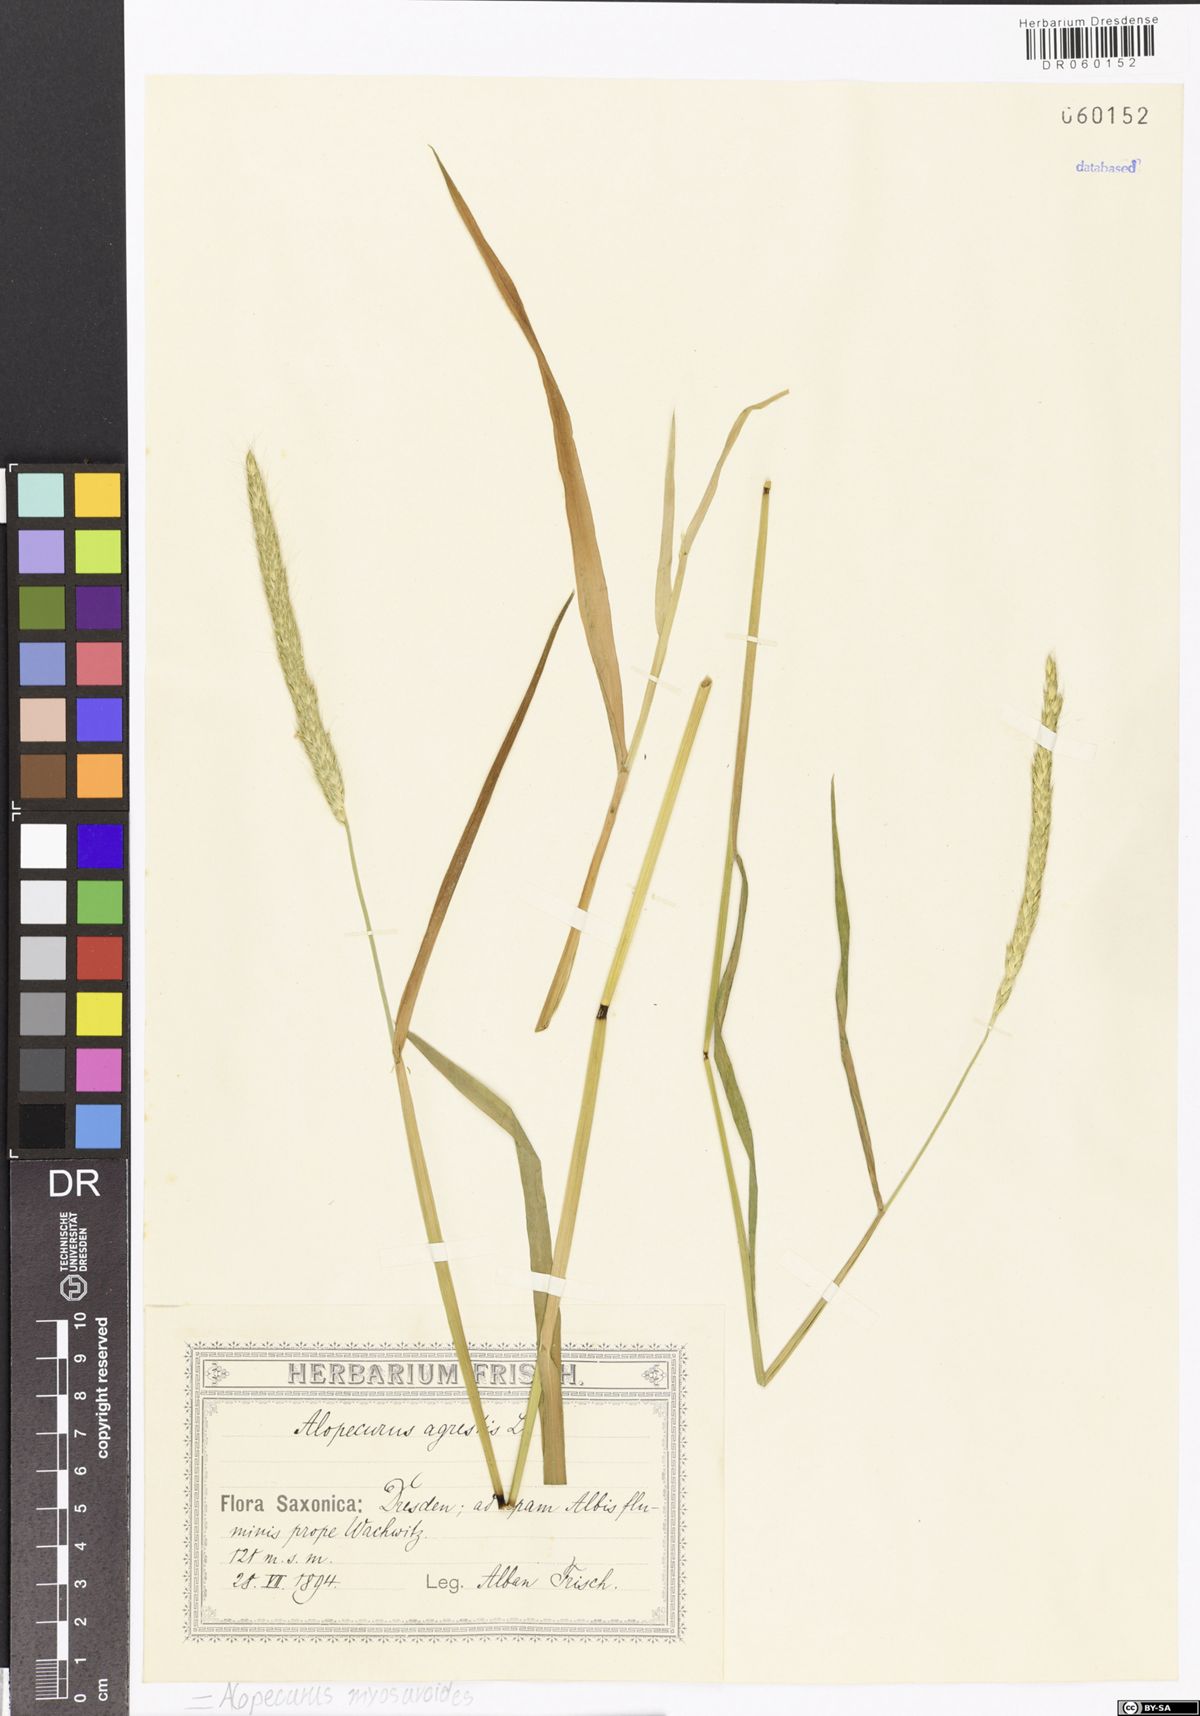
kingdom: Plantae
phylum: Tracheophyta
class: Liliopsida
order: Poales
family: Poaceae
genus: Alopecurus
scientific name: Alopecurus myosuroides
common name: Black-grass
